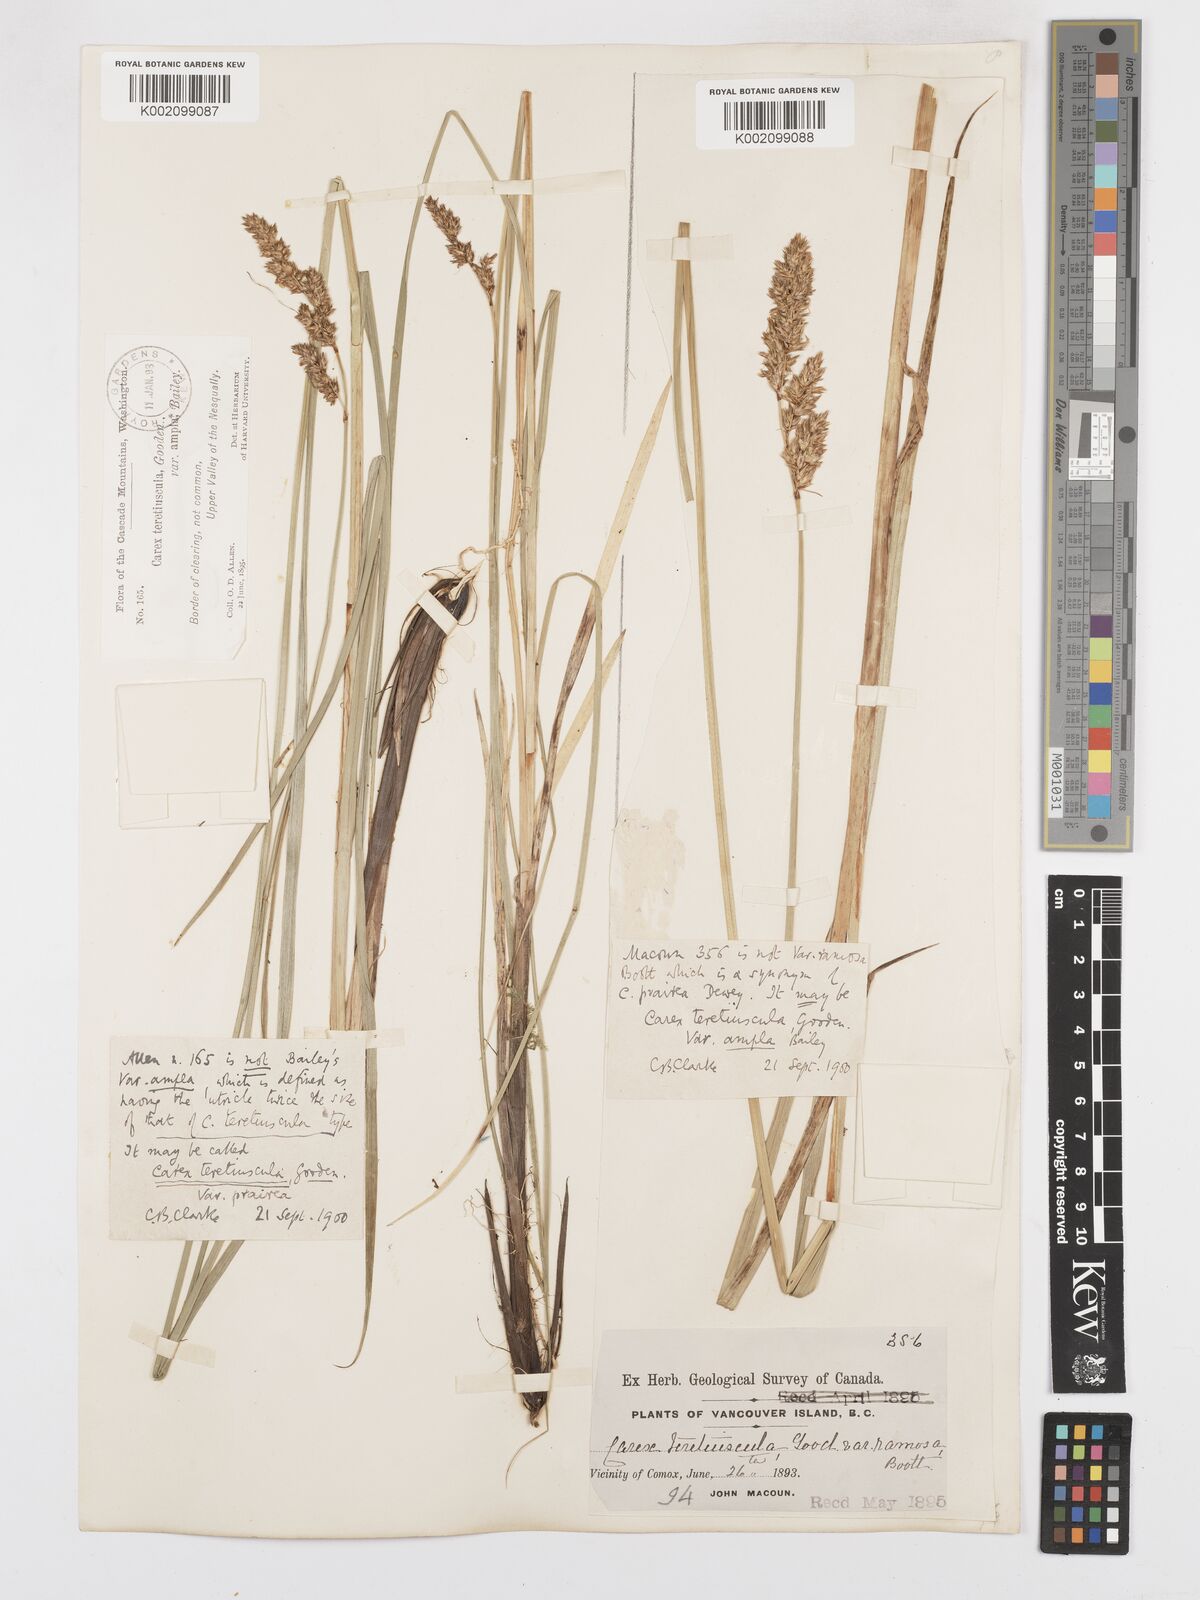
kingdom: Plantae
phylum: Tracheophyta
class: Liliopsida
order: Poales
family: Cyperaceae
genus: Carex
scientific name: Carex cusickii
